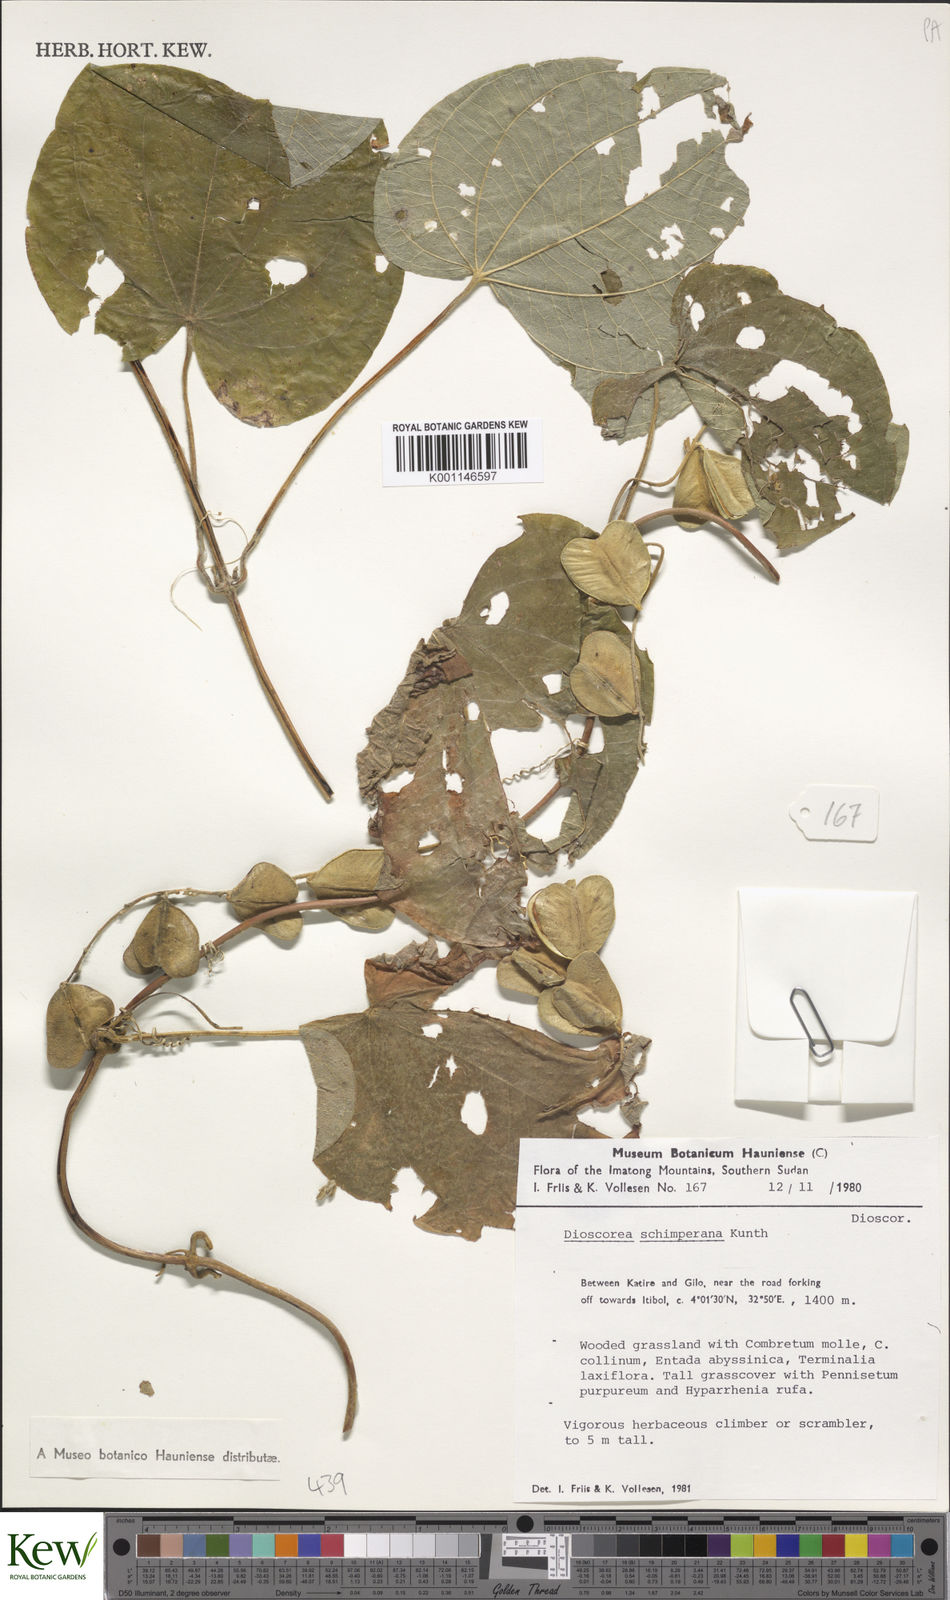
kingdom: Plantae
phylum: Tracheophyta
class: Liliopsida
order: Dioscoreales
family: Dioscoreaceae
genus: Dioscorea
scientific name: Dioscorea schimperiana
